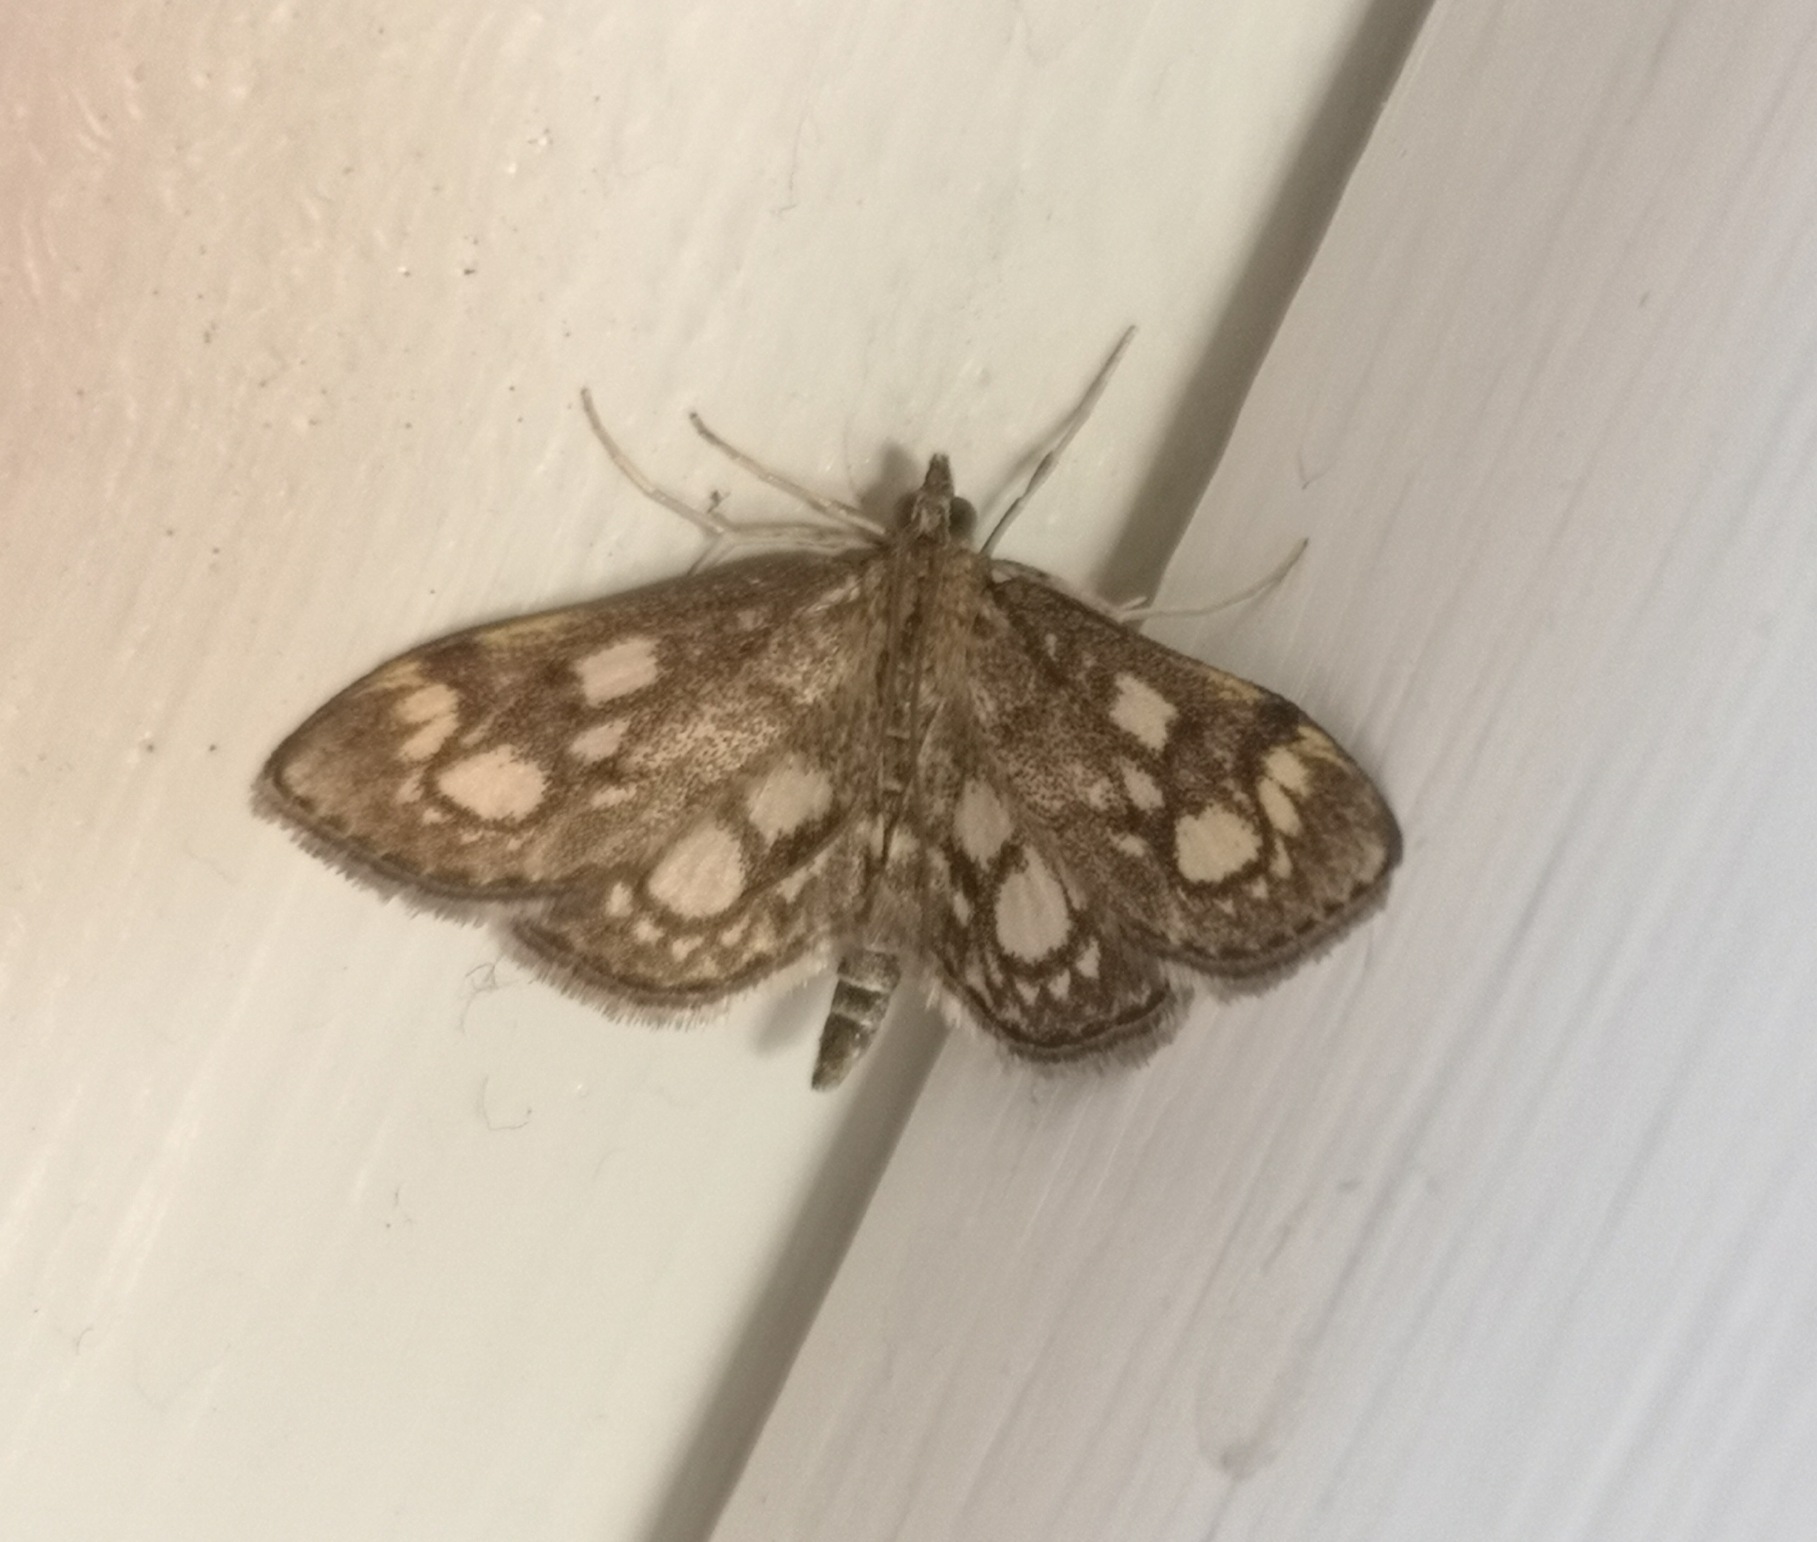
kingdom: Animalia
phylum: Arthropoda
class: Insecta
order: Lepidoptera
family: Crambidae
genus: Anania
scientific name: Anania coronata
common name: Hyldehalvmøl
